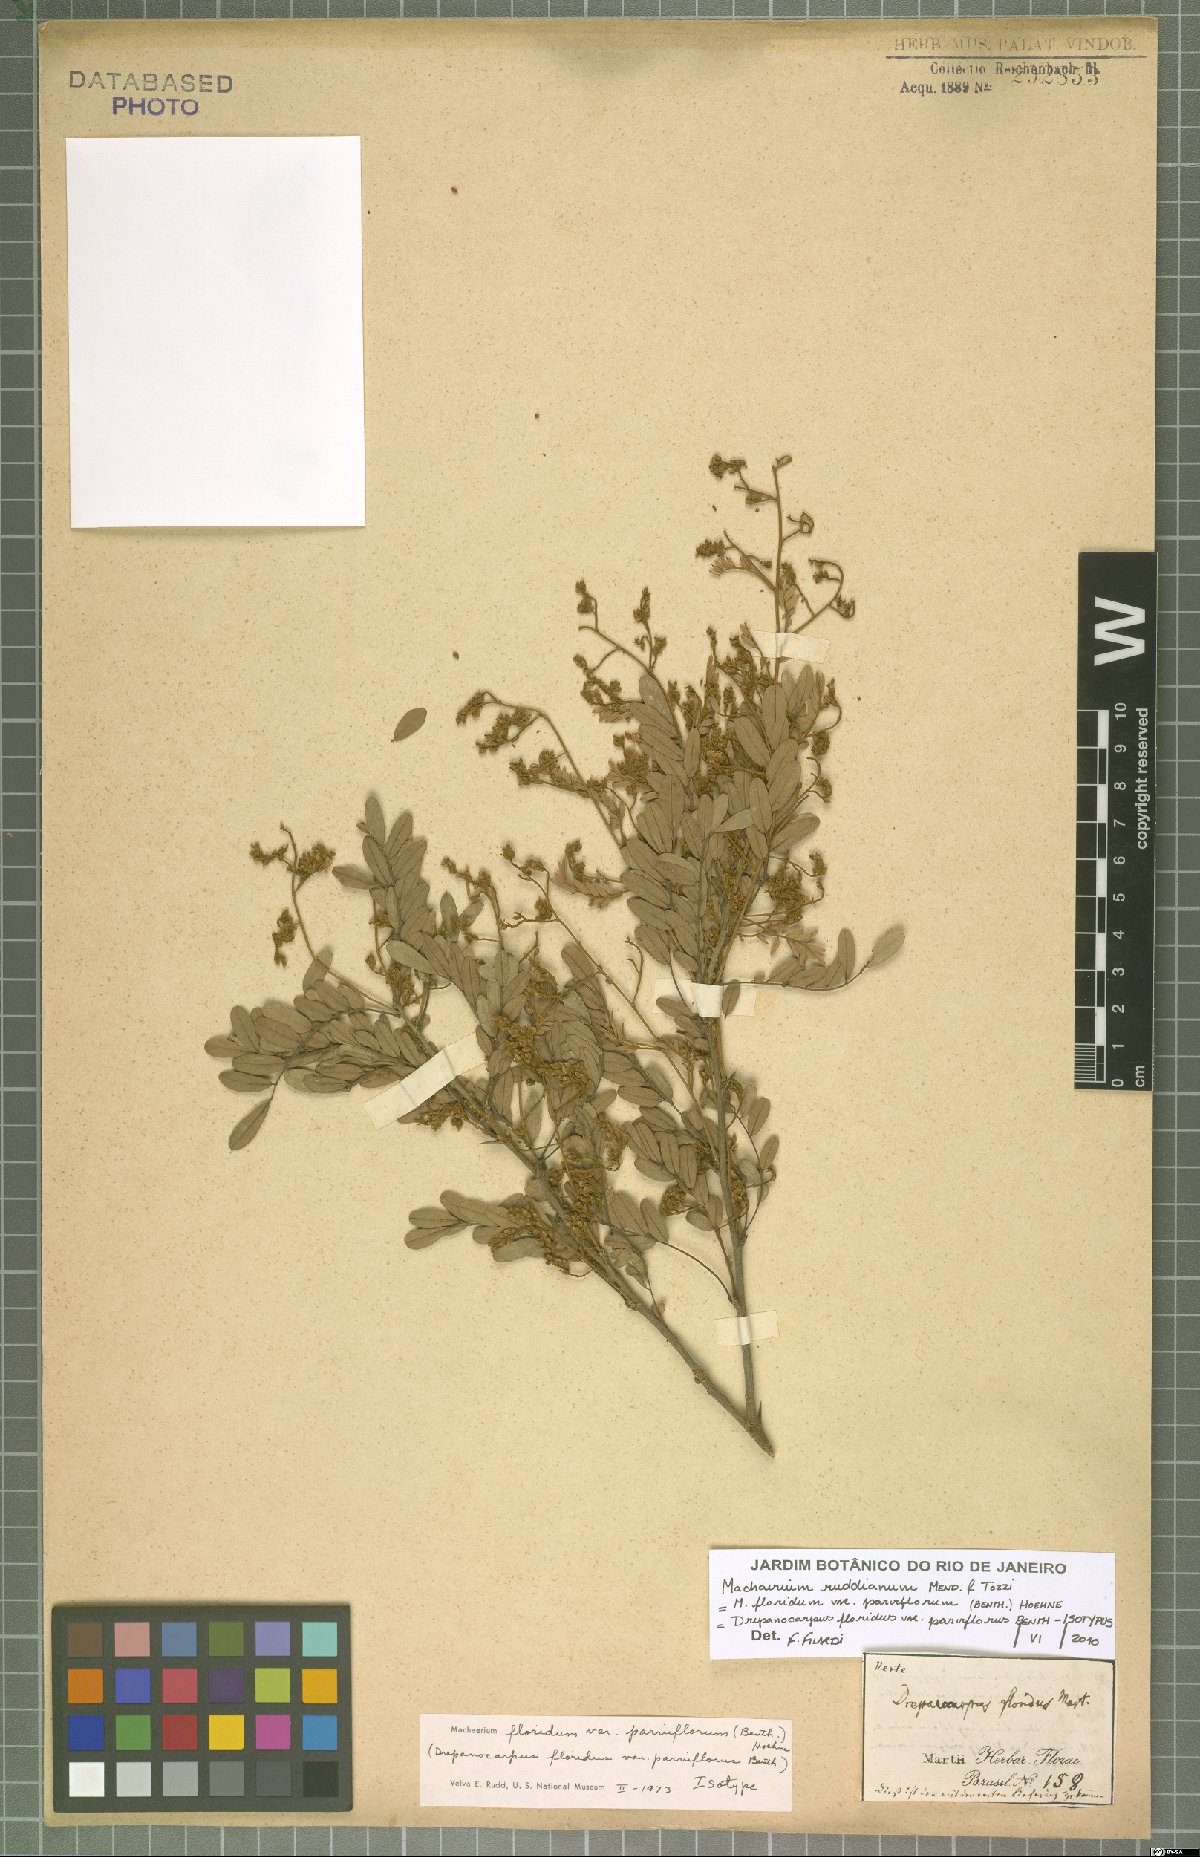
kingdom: Plantae
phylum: Tracheophyta
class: Magnoliopsida
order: Fabales
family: Fabaceae
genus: Machaerium
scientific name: Machaerium ruddianum
